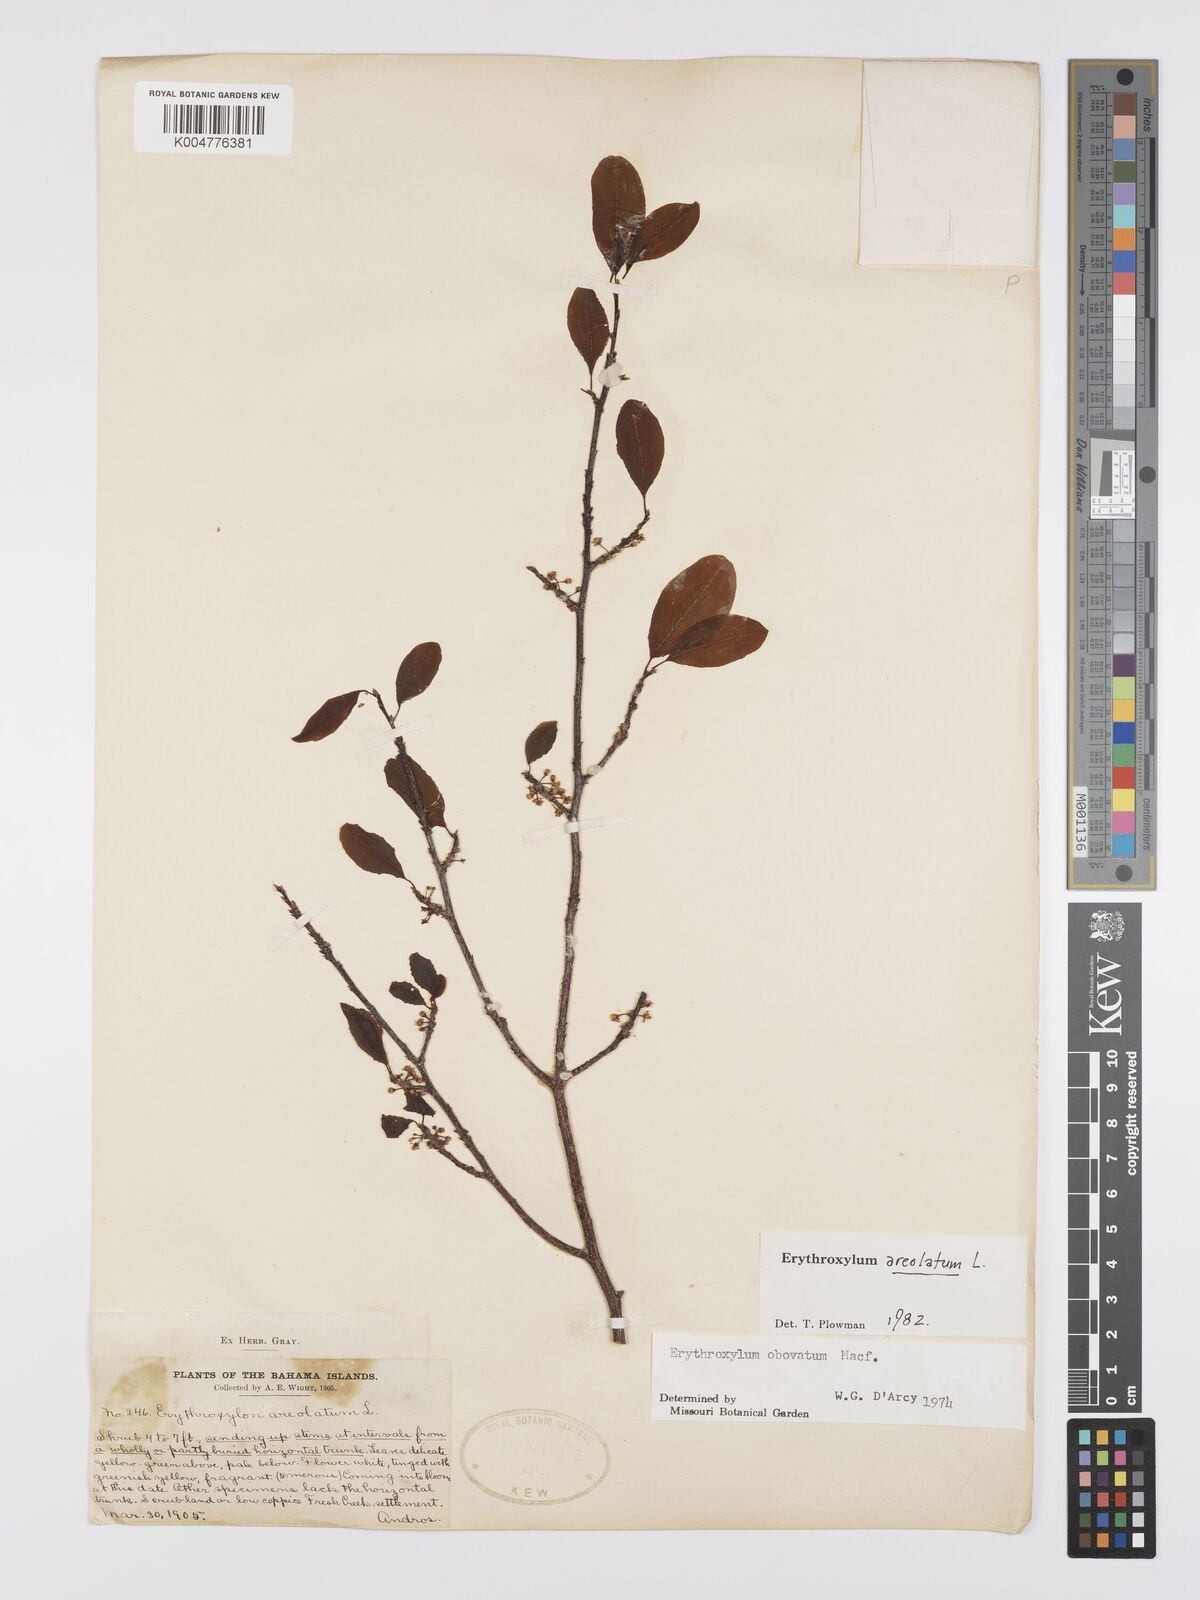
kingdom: Plantae
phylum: Tracheophyta
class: Magnoliopsida
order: Malpighiales
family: Erythroxylaceae
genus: Erythroxylum
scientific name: Erythroxylum areolatum
